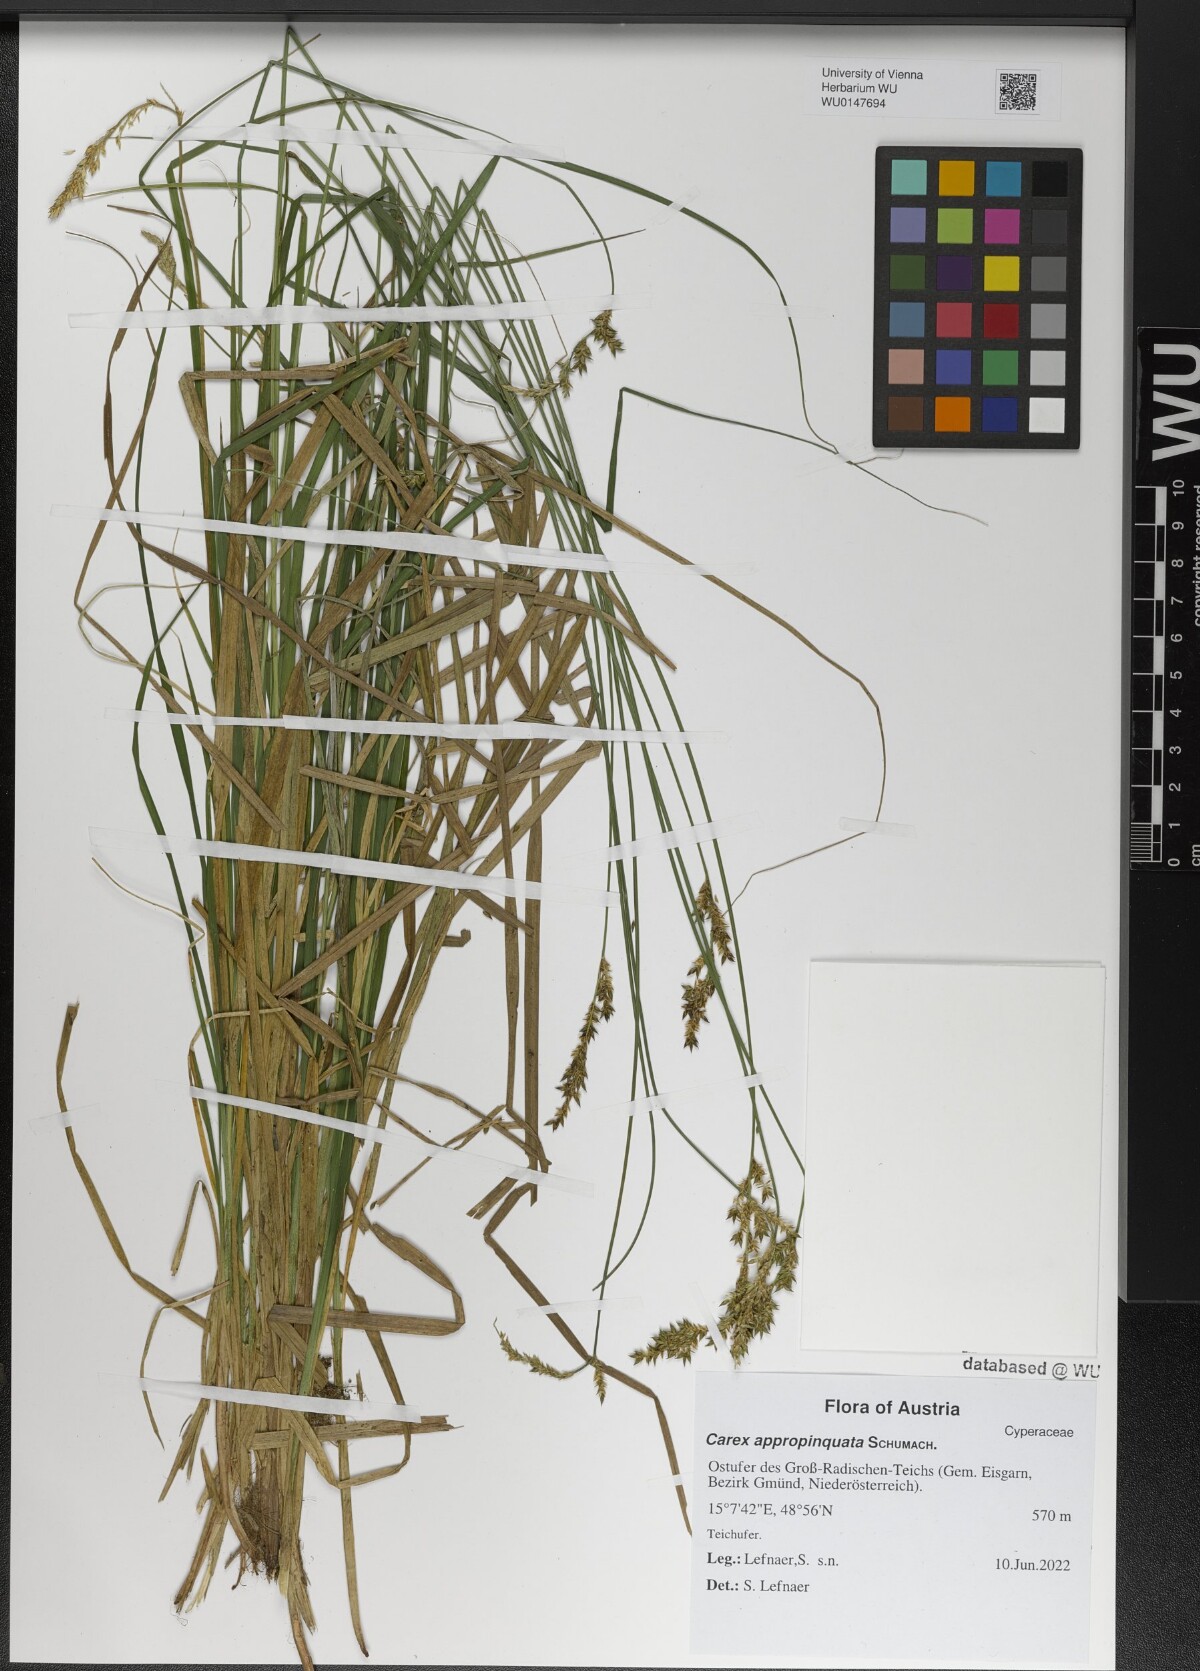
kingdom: Plantae
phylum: Tracheophyta
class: Liliopsida
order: Poales
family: Cyperaceae
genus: Carex
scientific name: Carex appropinquata
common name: Fibrous tussock-sedge
